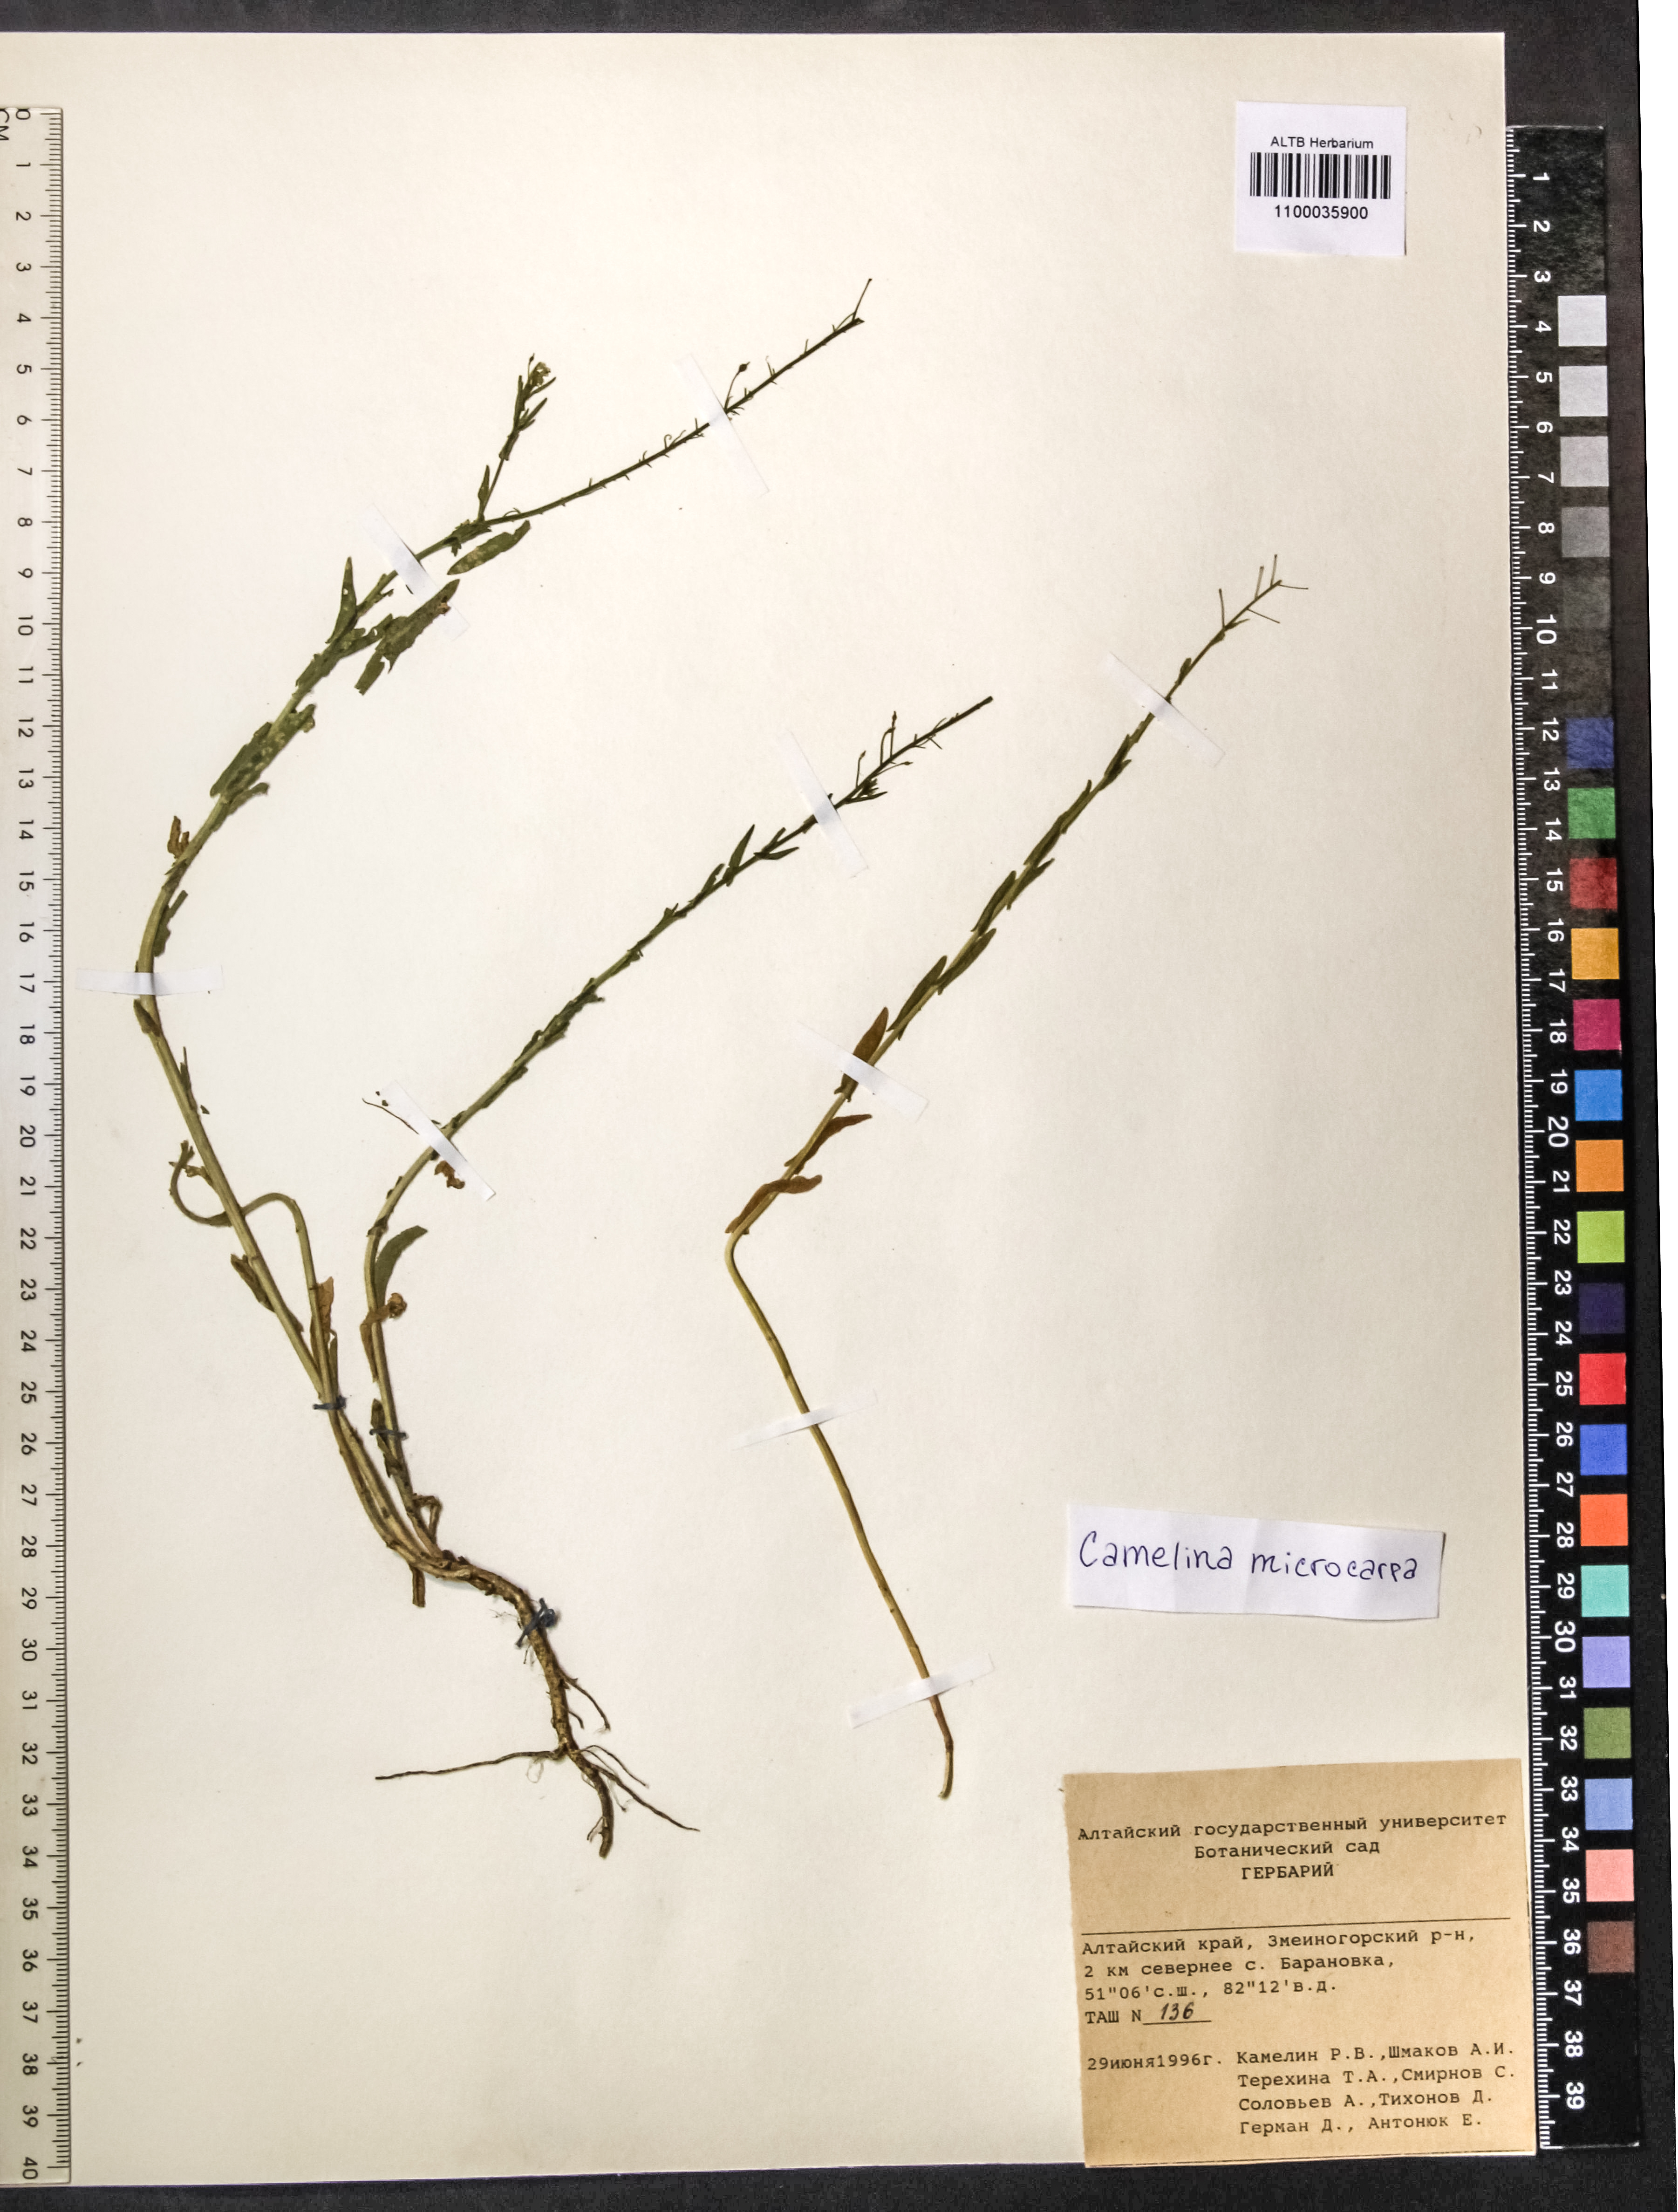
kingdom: Plantae
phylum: Tracheophyta
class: Magnoliopsida
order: Brassicales
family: Brassicaceae
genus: Camelina
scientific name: Camelina microcarpa
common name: Lesser gold-of-pleasure
